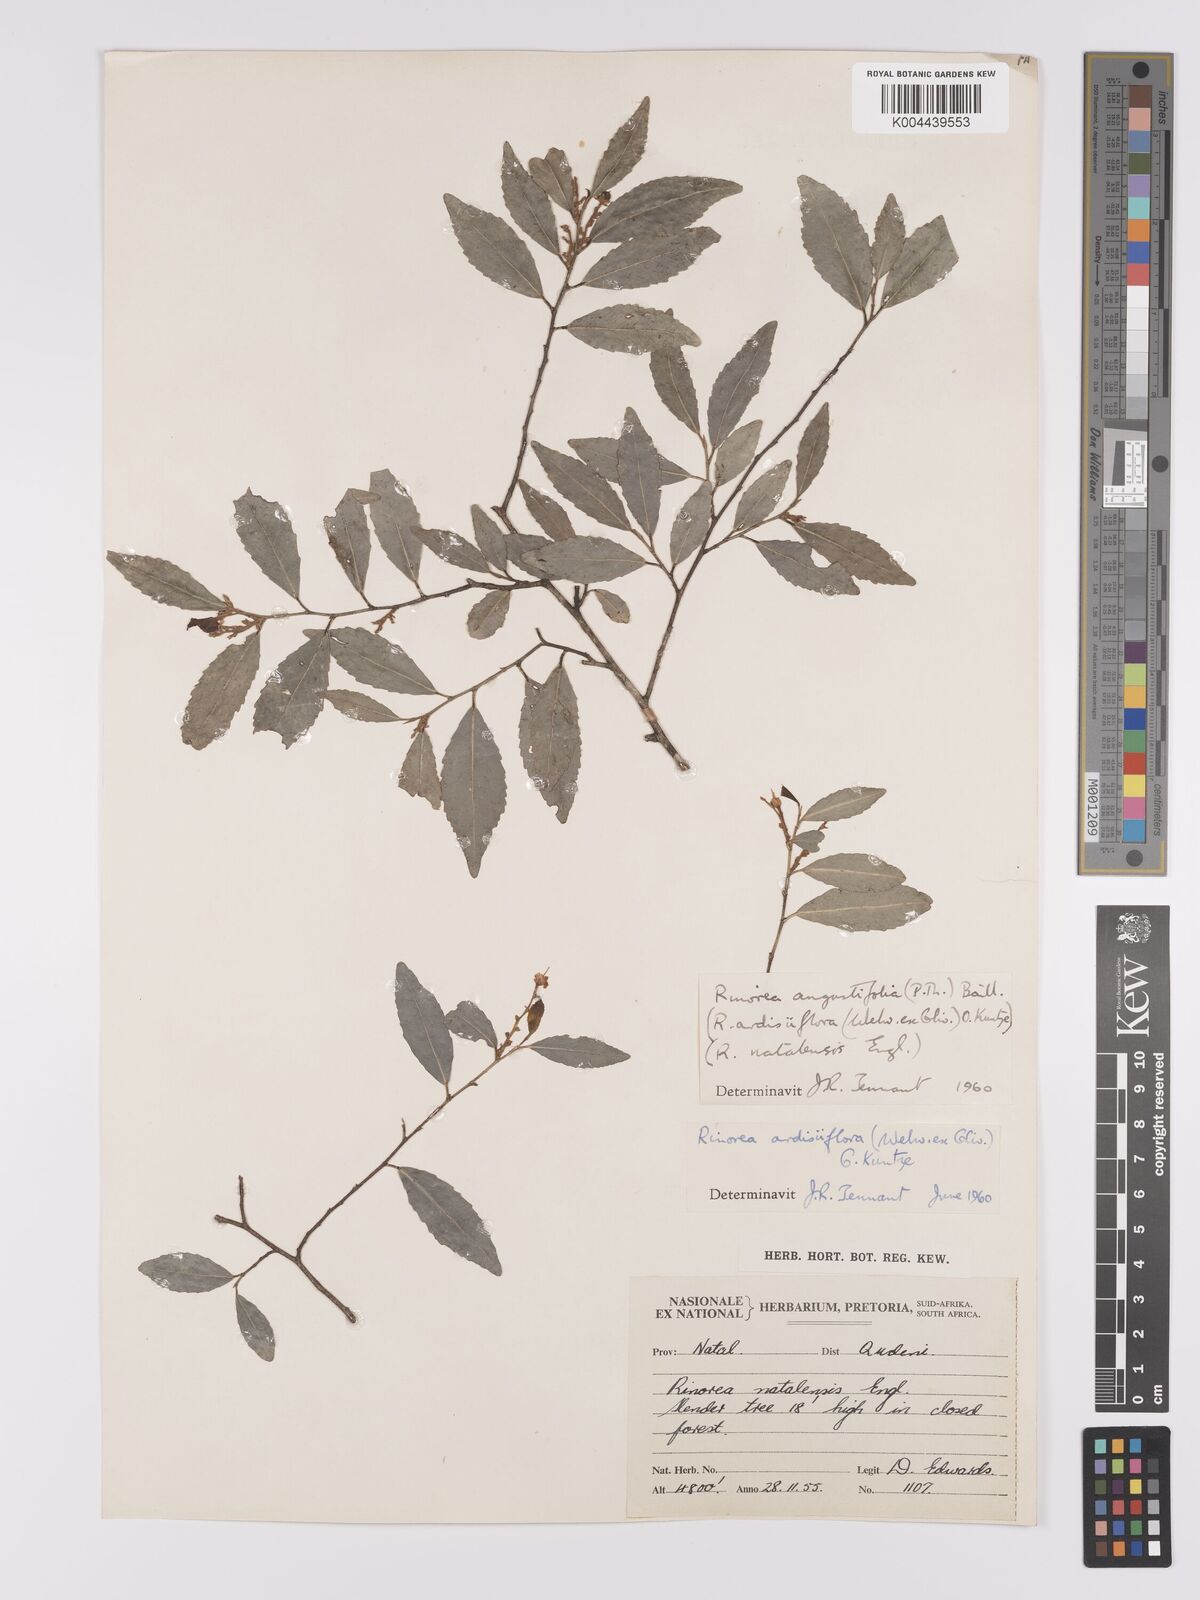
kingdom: Plantae
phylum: Tracheophyta
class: Magnoliopsida
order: Malpighiales
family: Violaceae
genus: Rinorea
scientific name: Rinorea angustifolia
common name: White violet-bush
